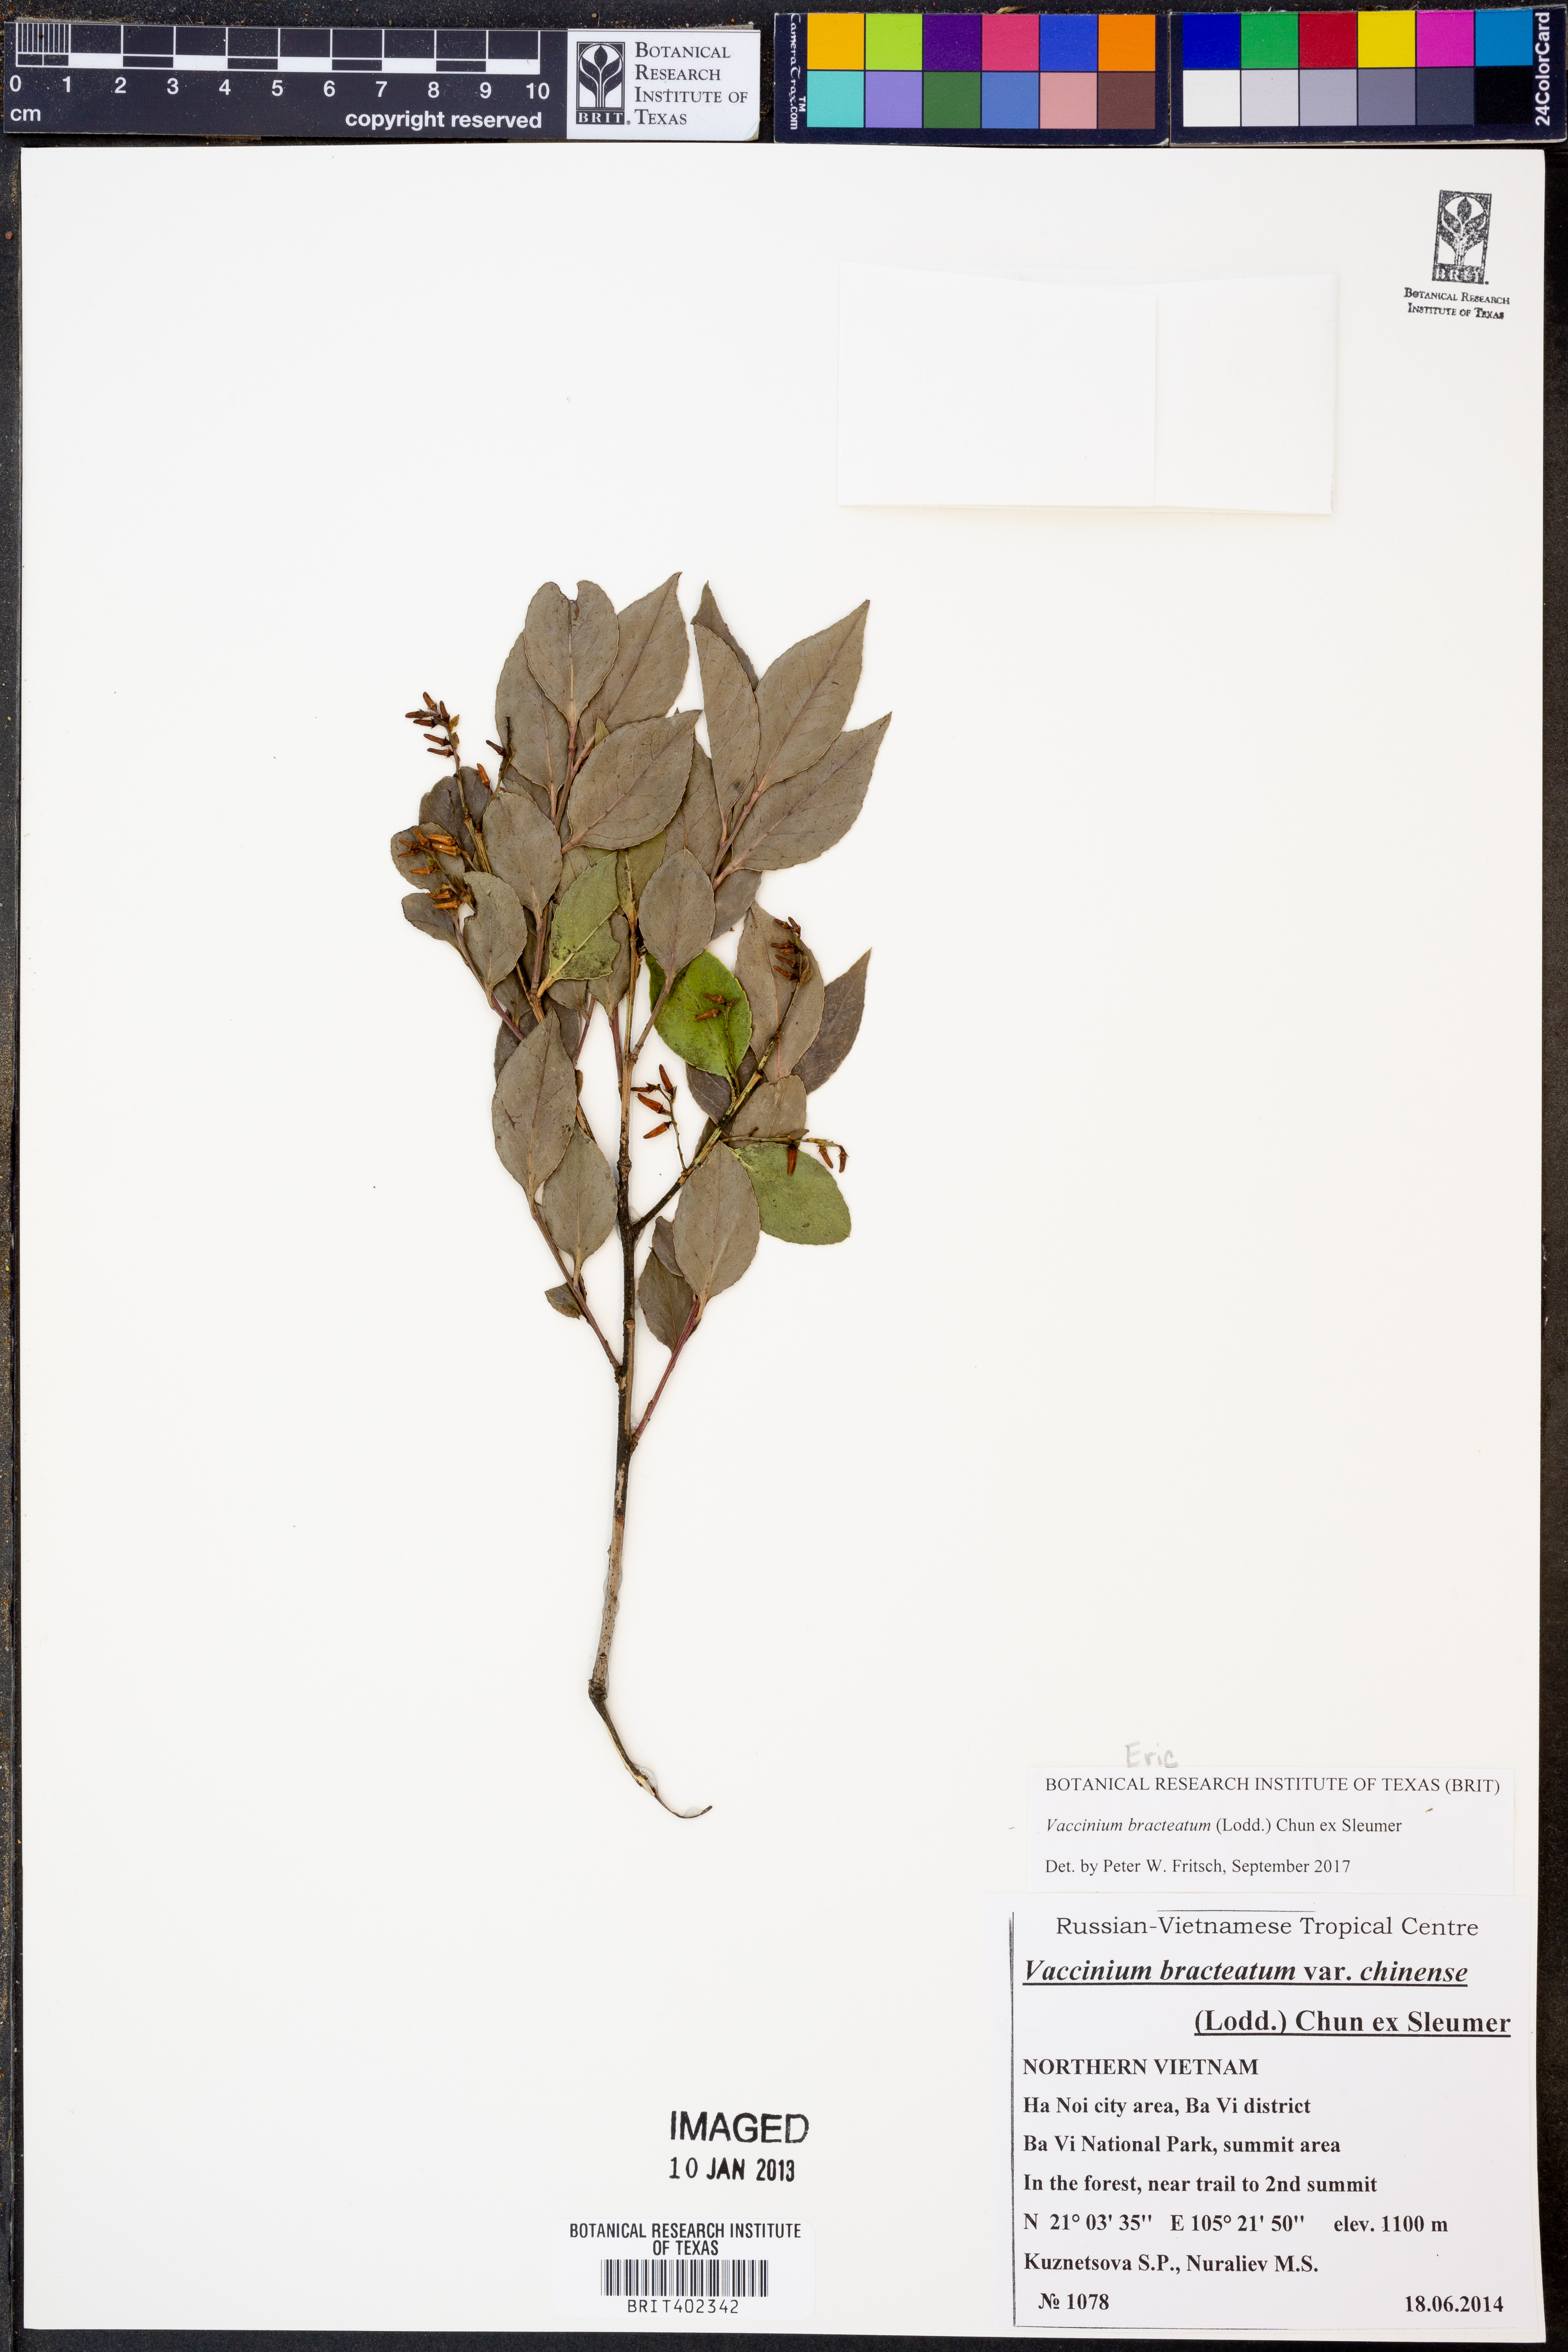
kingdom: Plantae
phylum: Tracheophyta
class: Magnoliopsida
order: Ericales
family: Ericaceae
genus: Vaccinium
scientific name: Vaccinium bracteatum
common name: Sea bilberry
